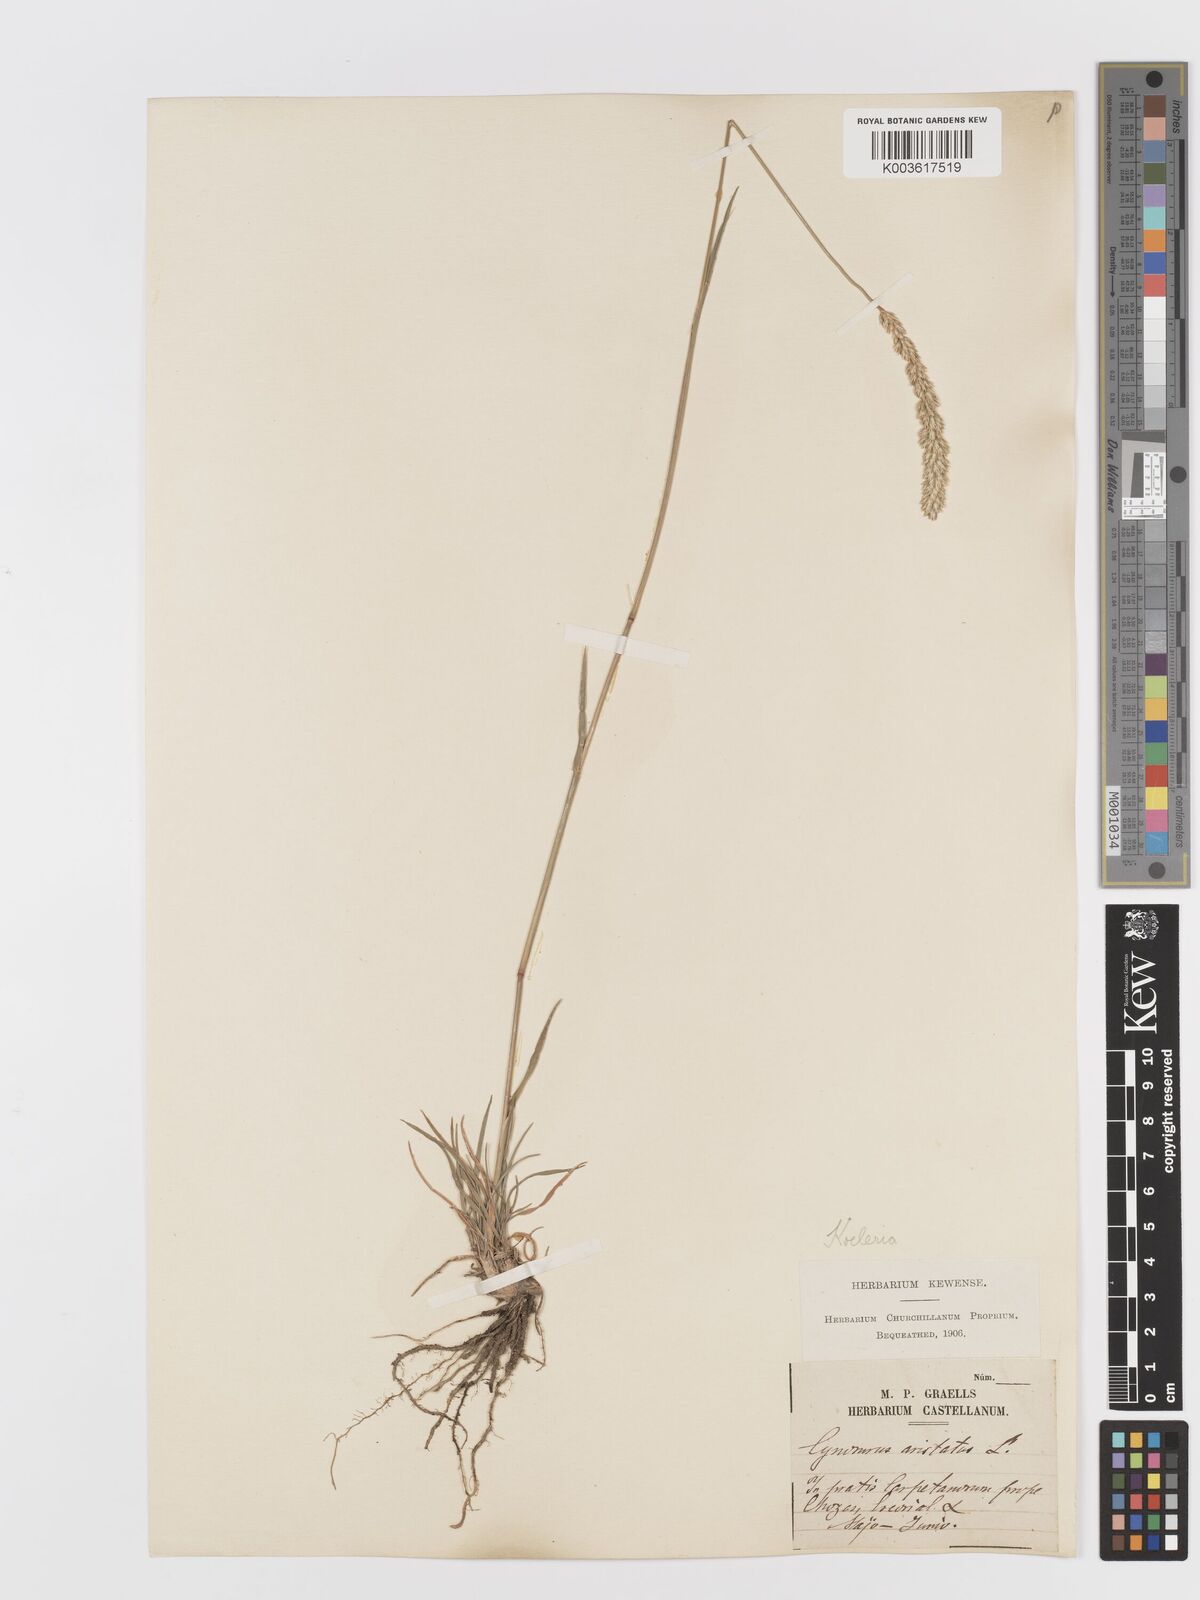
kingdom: Plantae
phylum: Tracheophyta
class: Liliopsida
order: Poales
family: Poaceae
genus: Koeleria
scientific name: Koeleria
